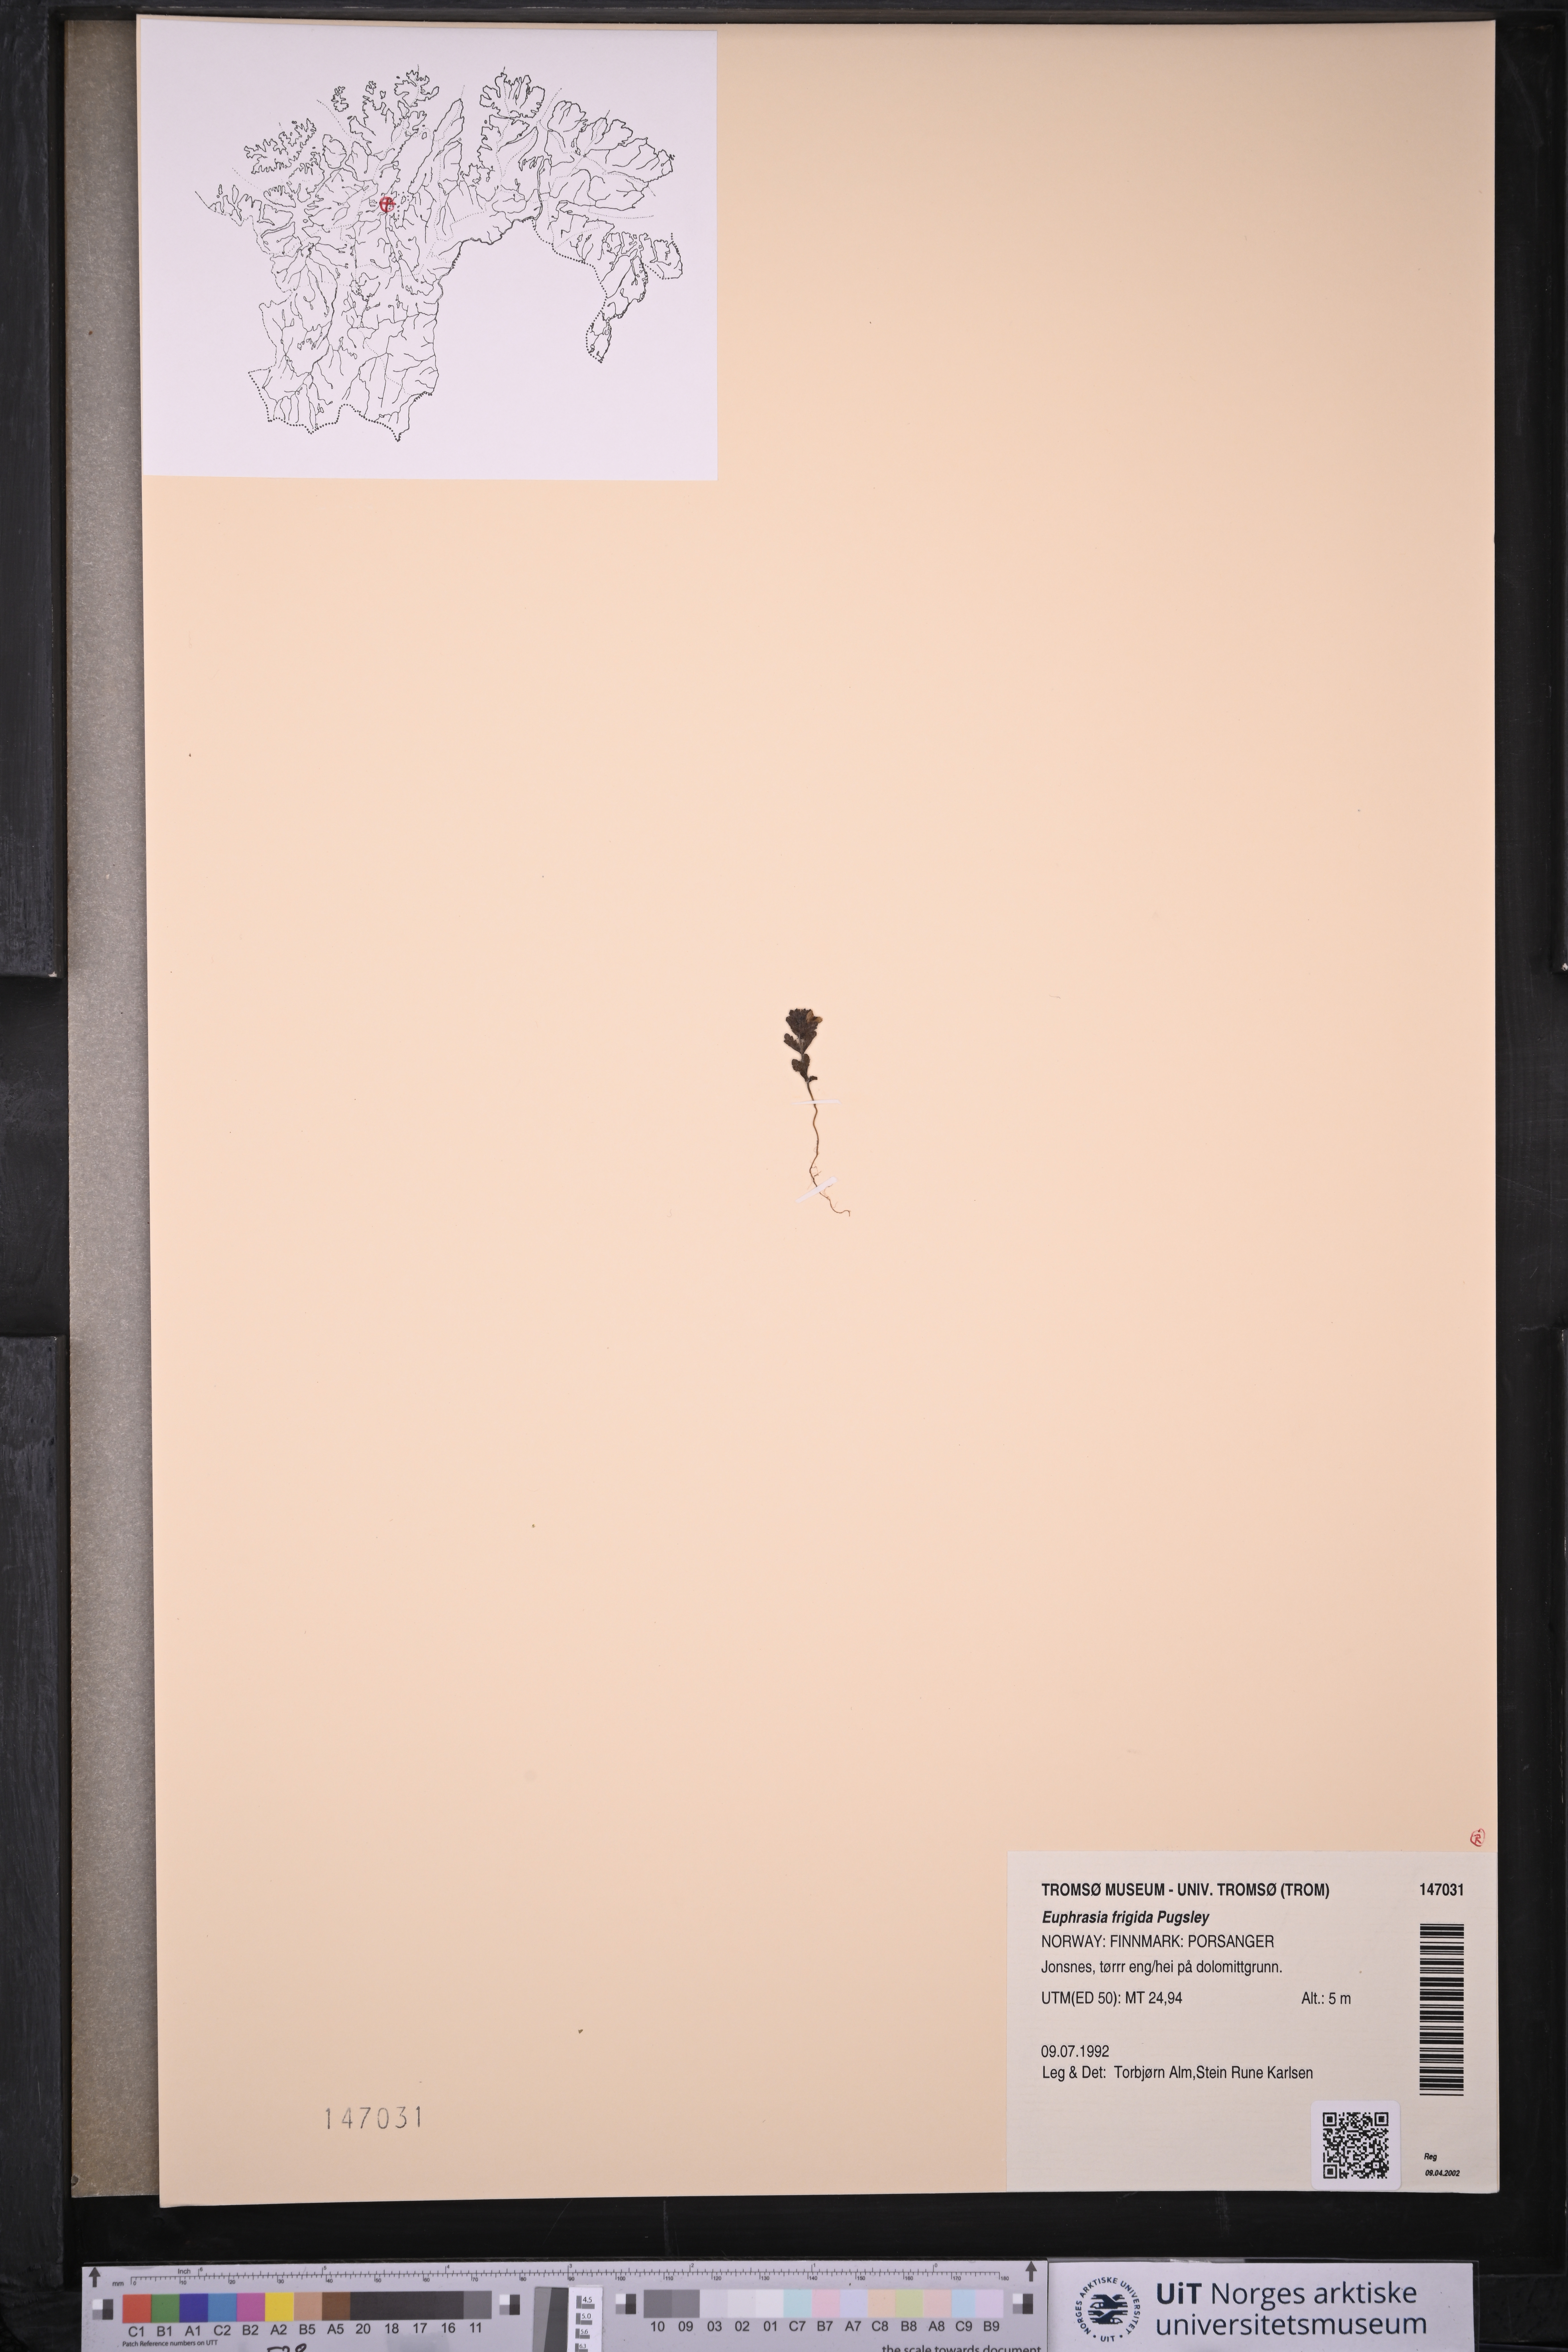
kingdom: Plantae
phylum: Tracheophyta
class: Magnoliopsida
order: Lamiales
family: Orobanchaceae
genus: Euphrasia
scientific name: Euphrasia frigida
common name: An eyebright
